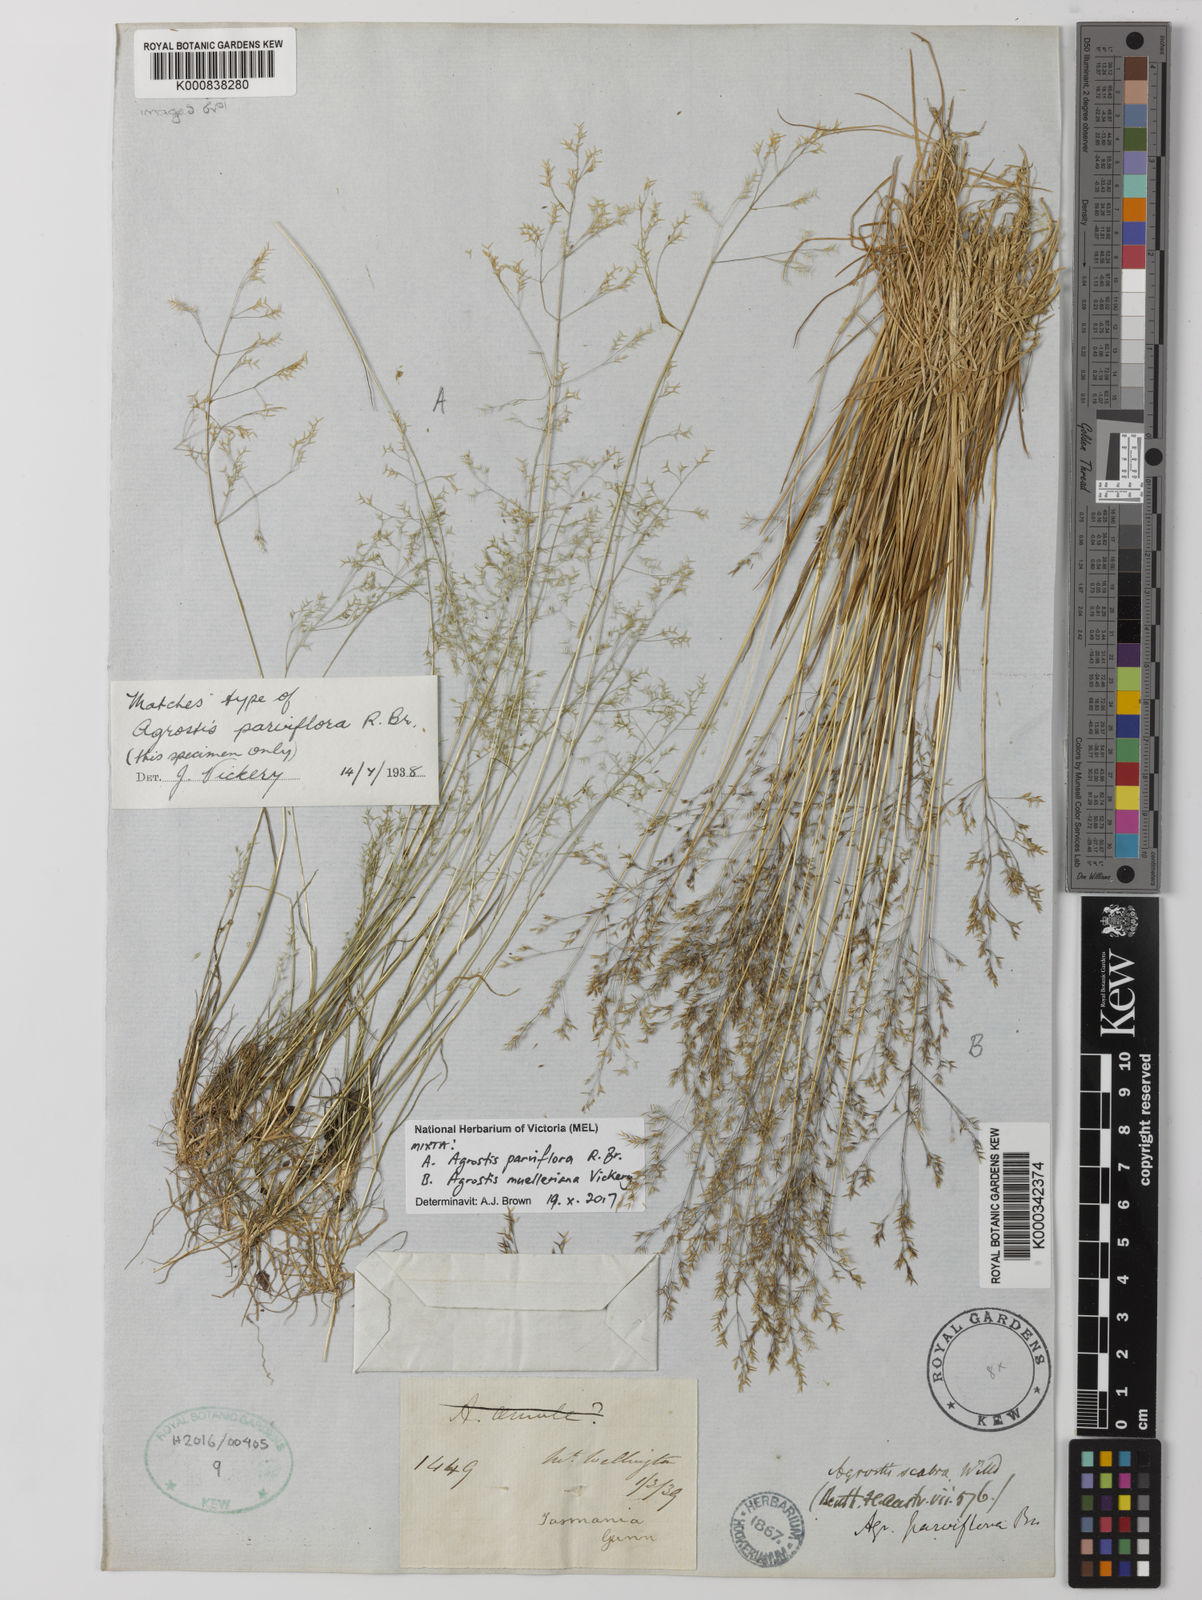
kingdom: Plantae
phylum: Tracheophyta
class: Liliopsida
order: Poales
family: Poaceae
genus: Agrostis
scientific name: Agrostis muelleriana
